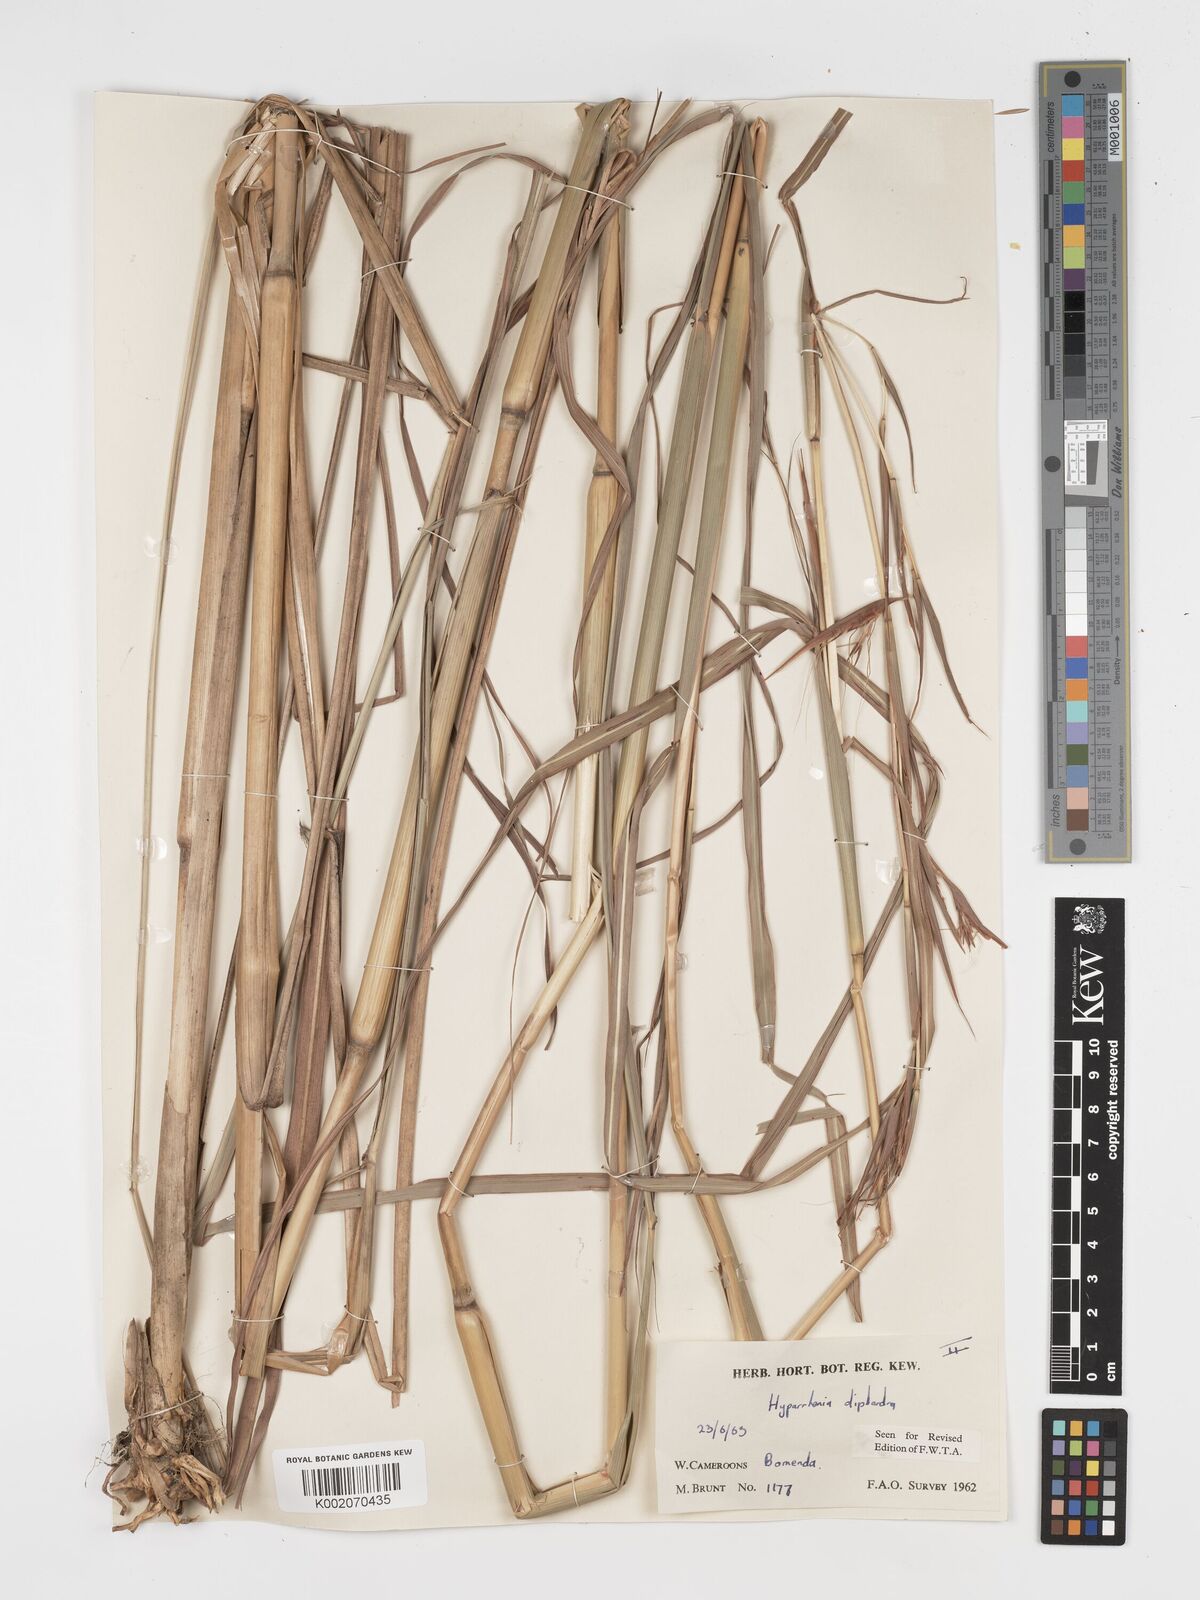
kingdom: Plantae
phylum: Tracheophyta
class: Liliopsida
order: Poales
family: Poaceae
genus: Hyparrhenia
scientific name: Hyparrhenia diplandra
